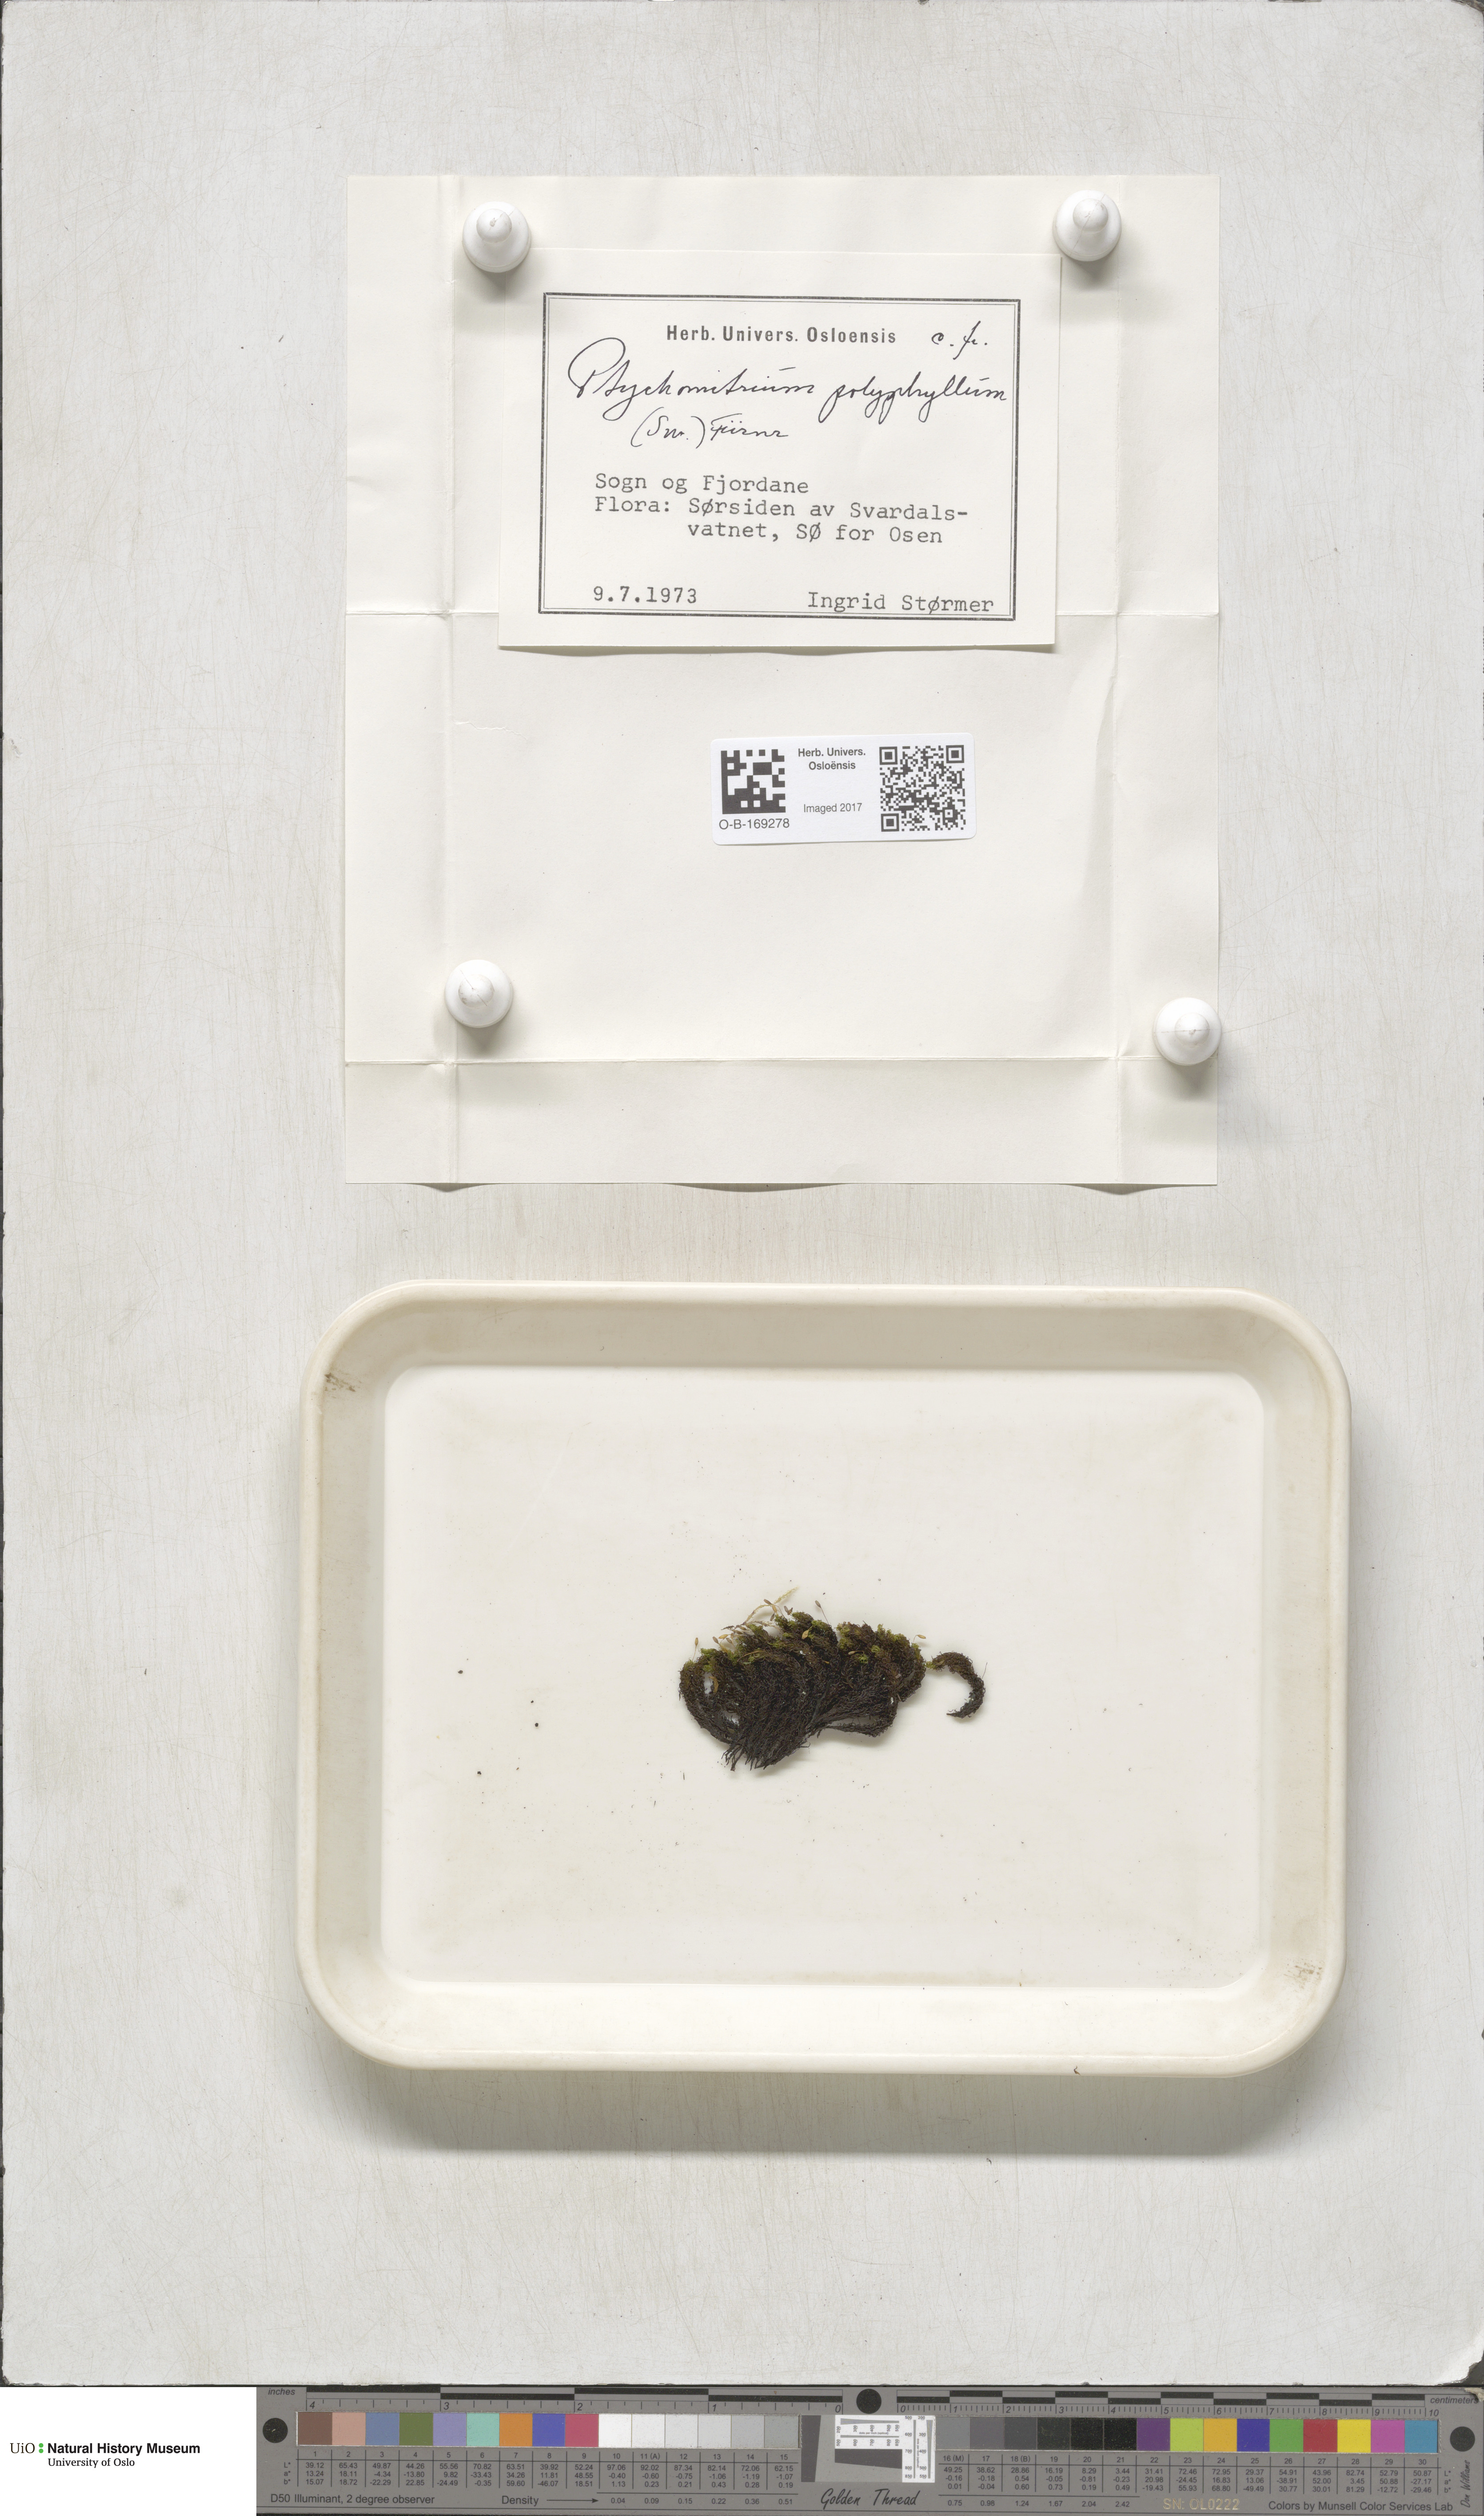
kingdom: Plantae
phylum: Bryophyta
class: Bryopsida
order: Grimmiales
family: Ptychomitriaceae
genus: Ptychomitrium
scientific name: Ptychomitrium polyphyllum
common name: Greater pincushion
